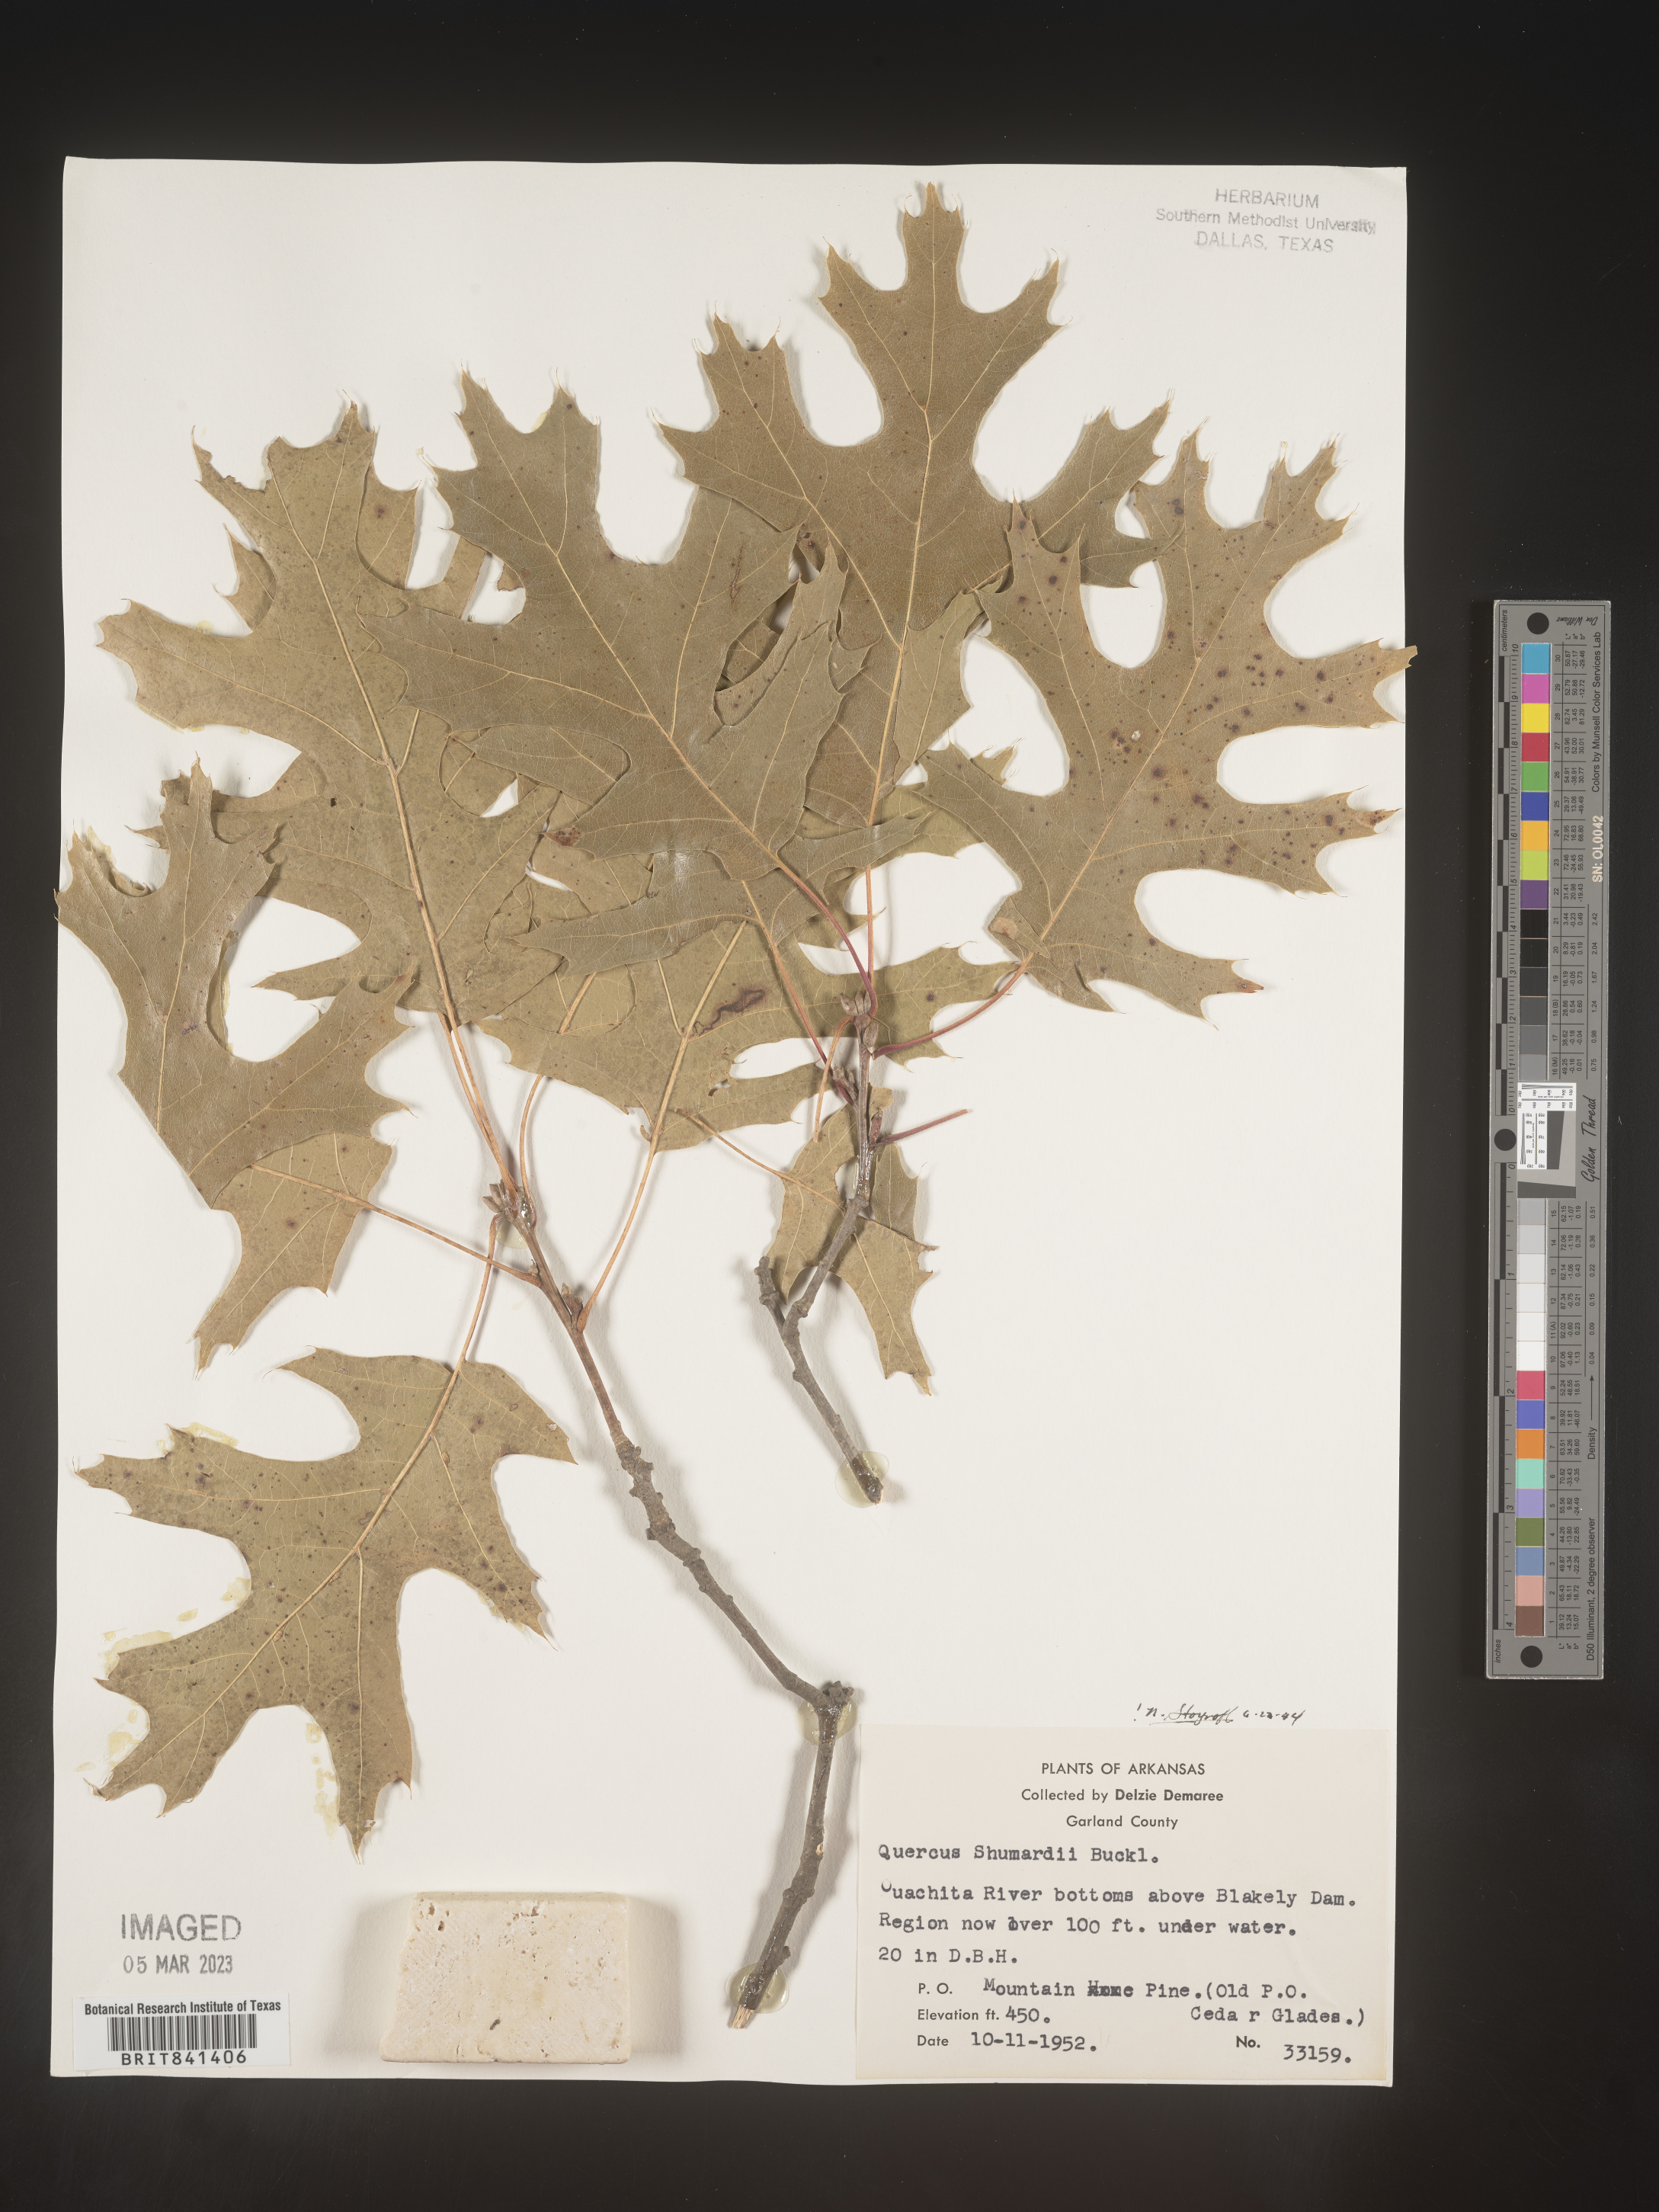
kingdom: Plantae
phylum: Tracheophyta
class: Magnoliopsida
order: Fagales
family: Fagaceae
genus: Quercus
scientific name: Quercus shumardii
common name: Shumard oak
